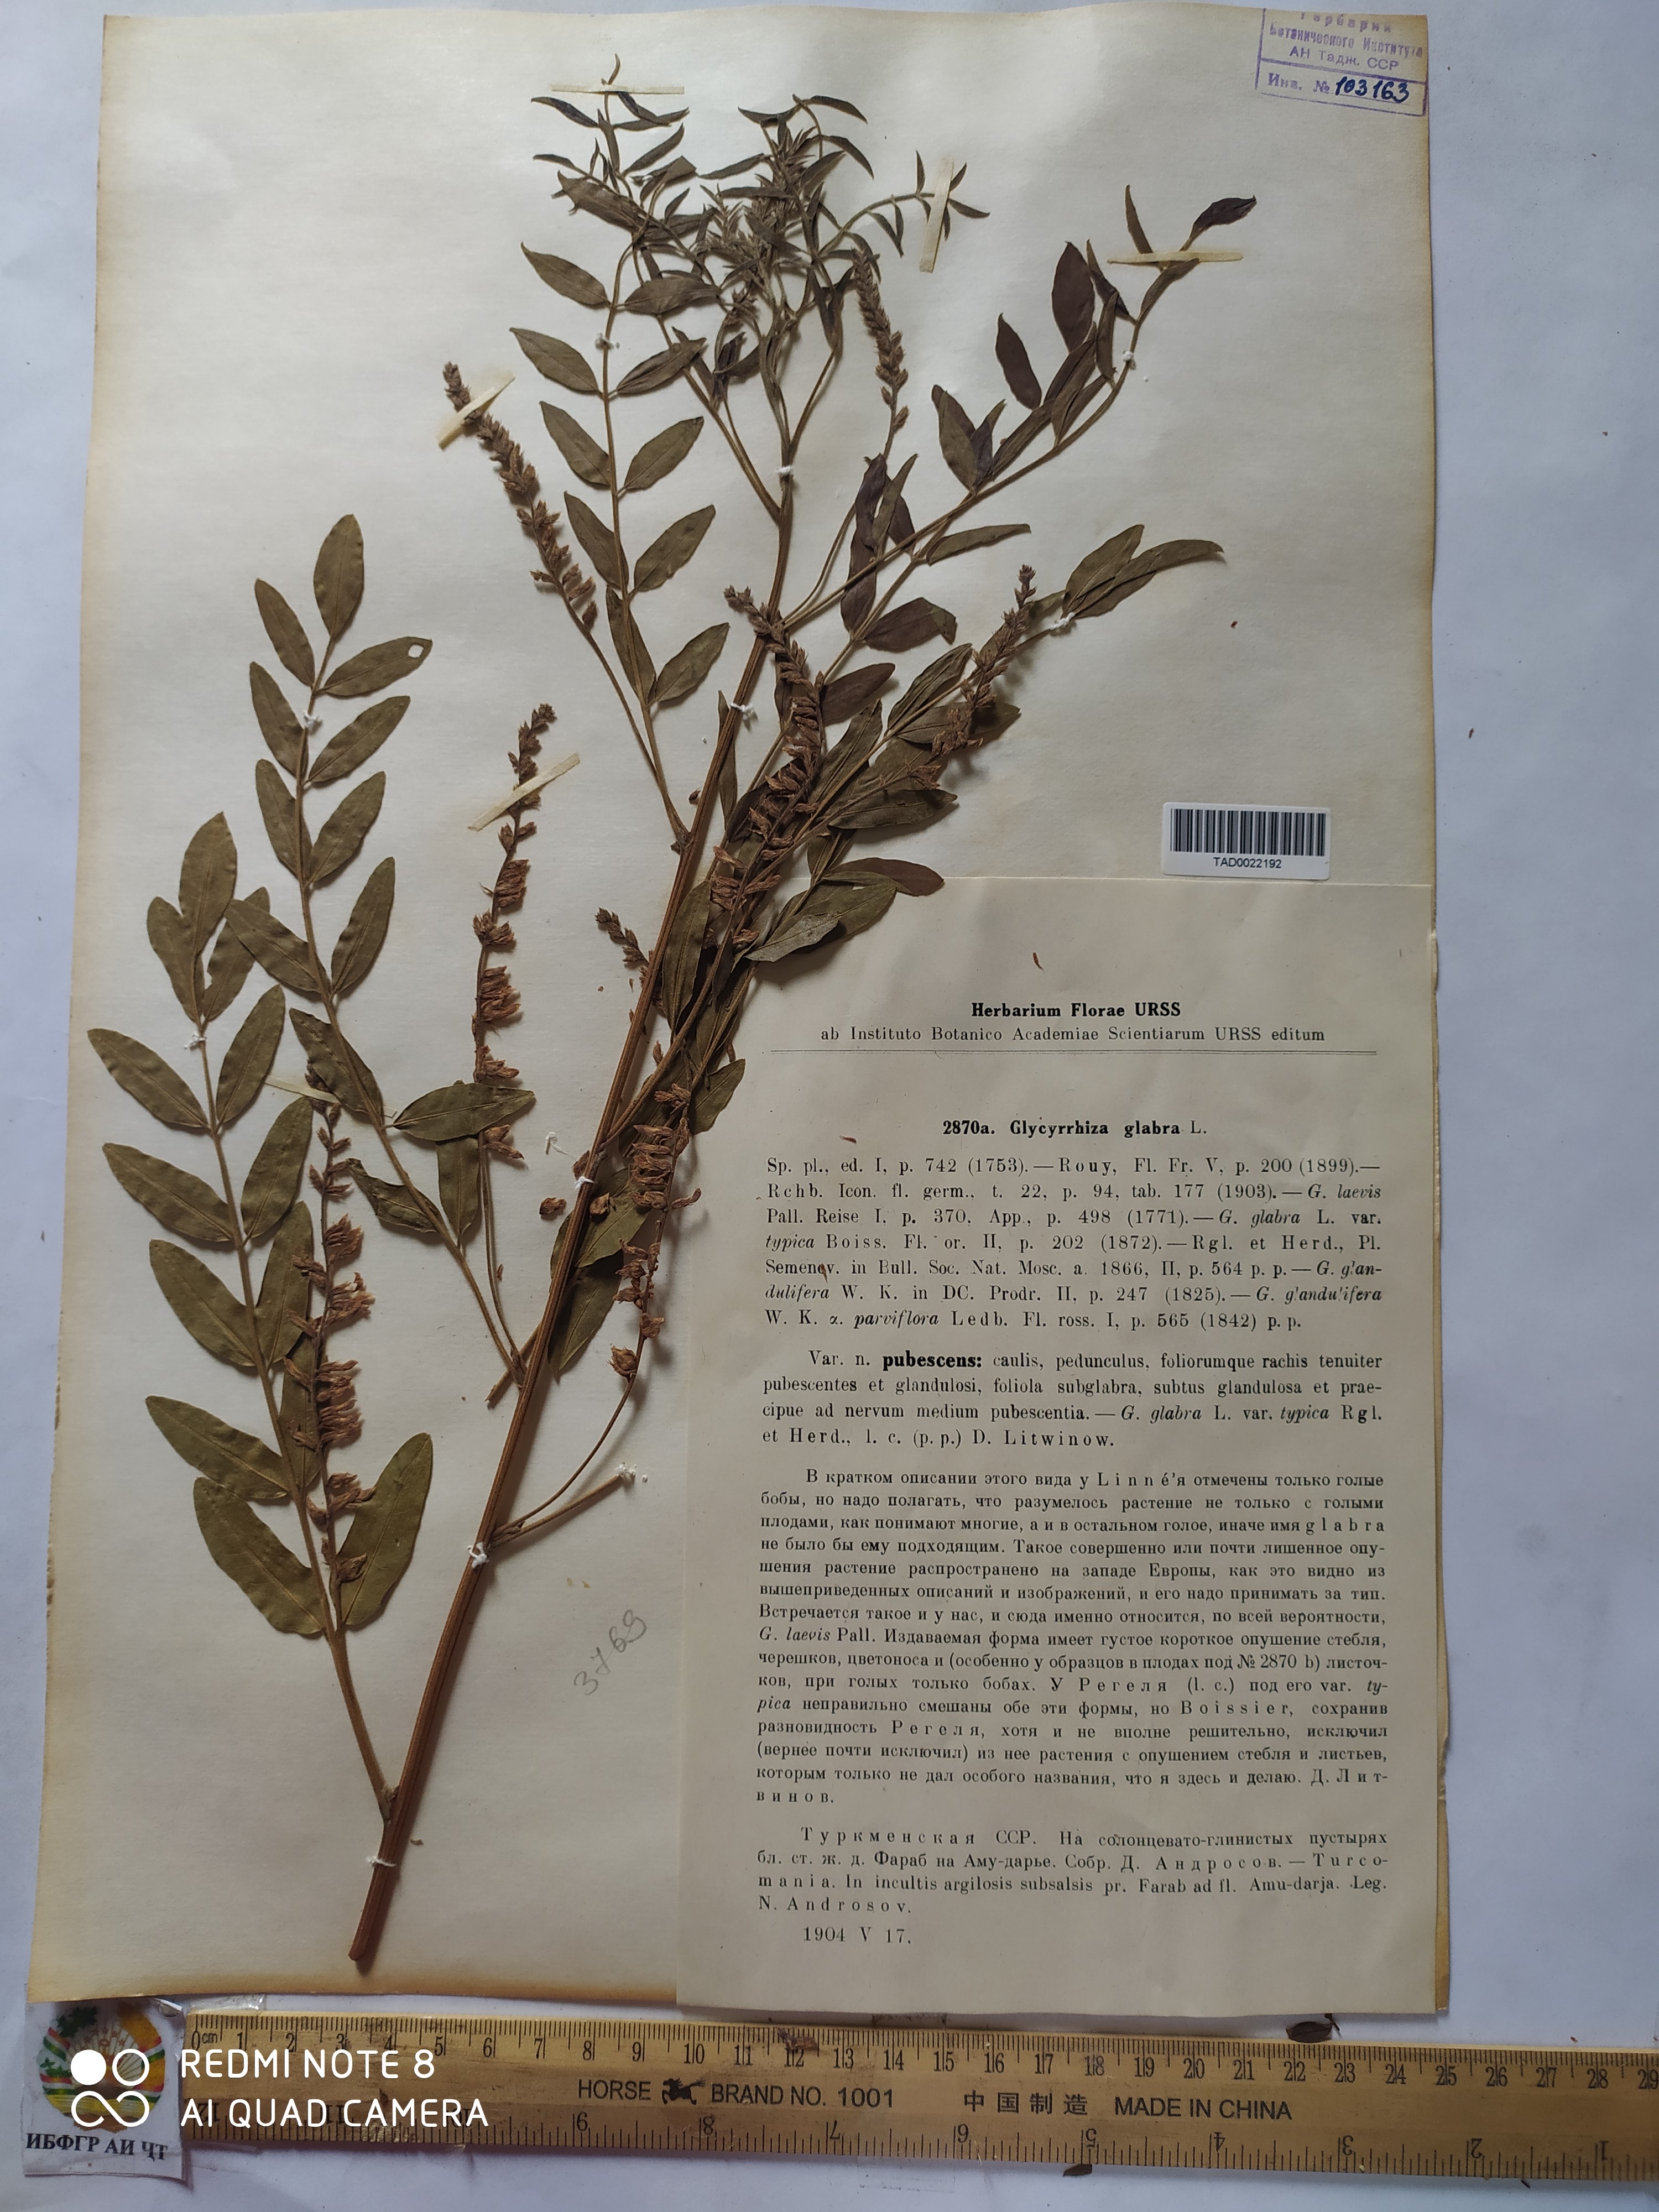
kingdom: Plantae
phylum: Tracheophyta
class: Magnoliopsida
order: Fabales
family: Fabaceae
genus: Glycyrrhiza
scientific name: Glycyrrhiza glabra
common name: Liquorice
